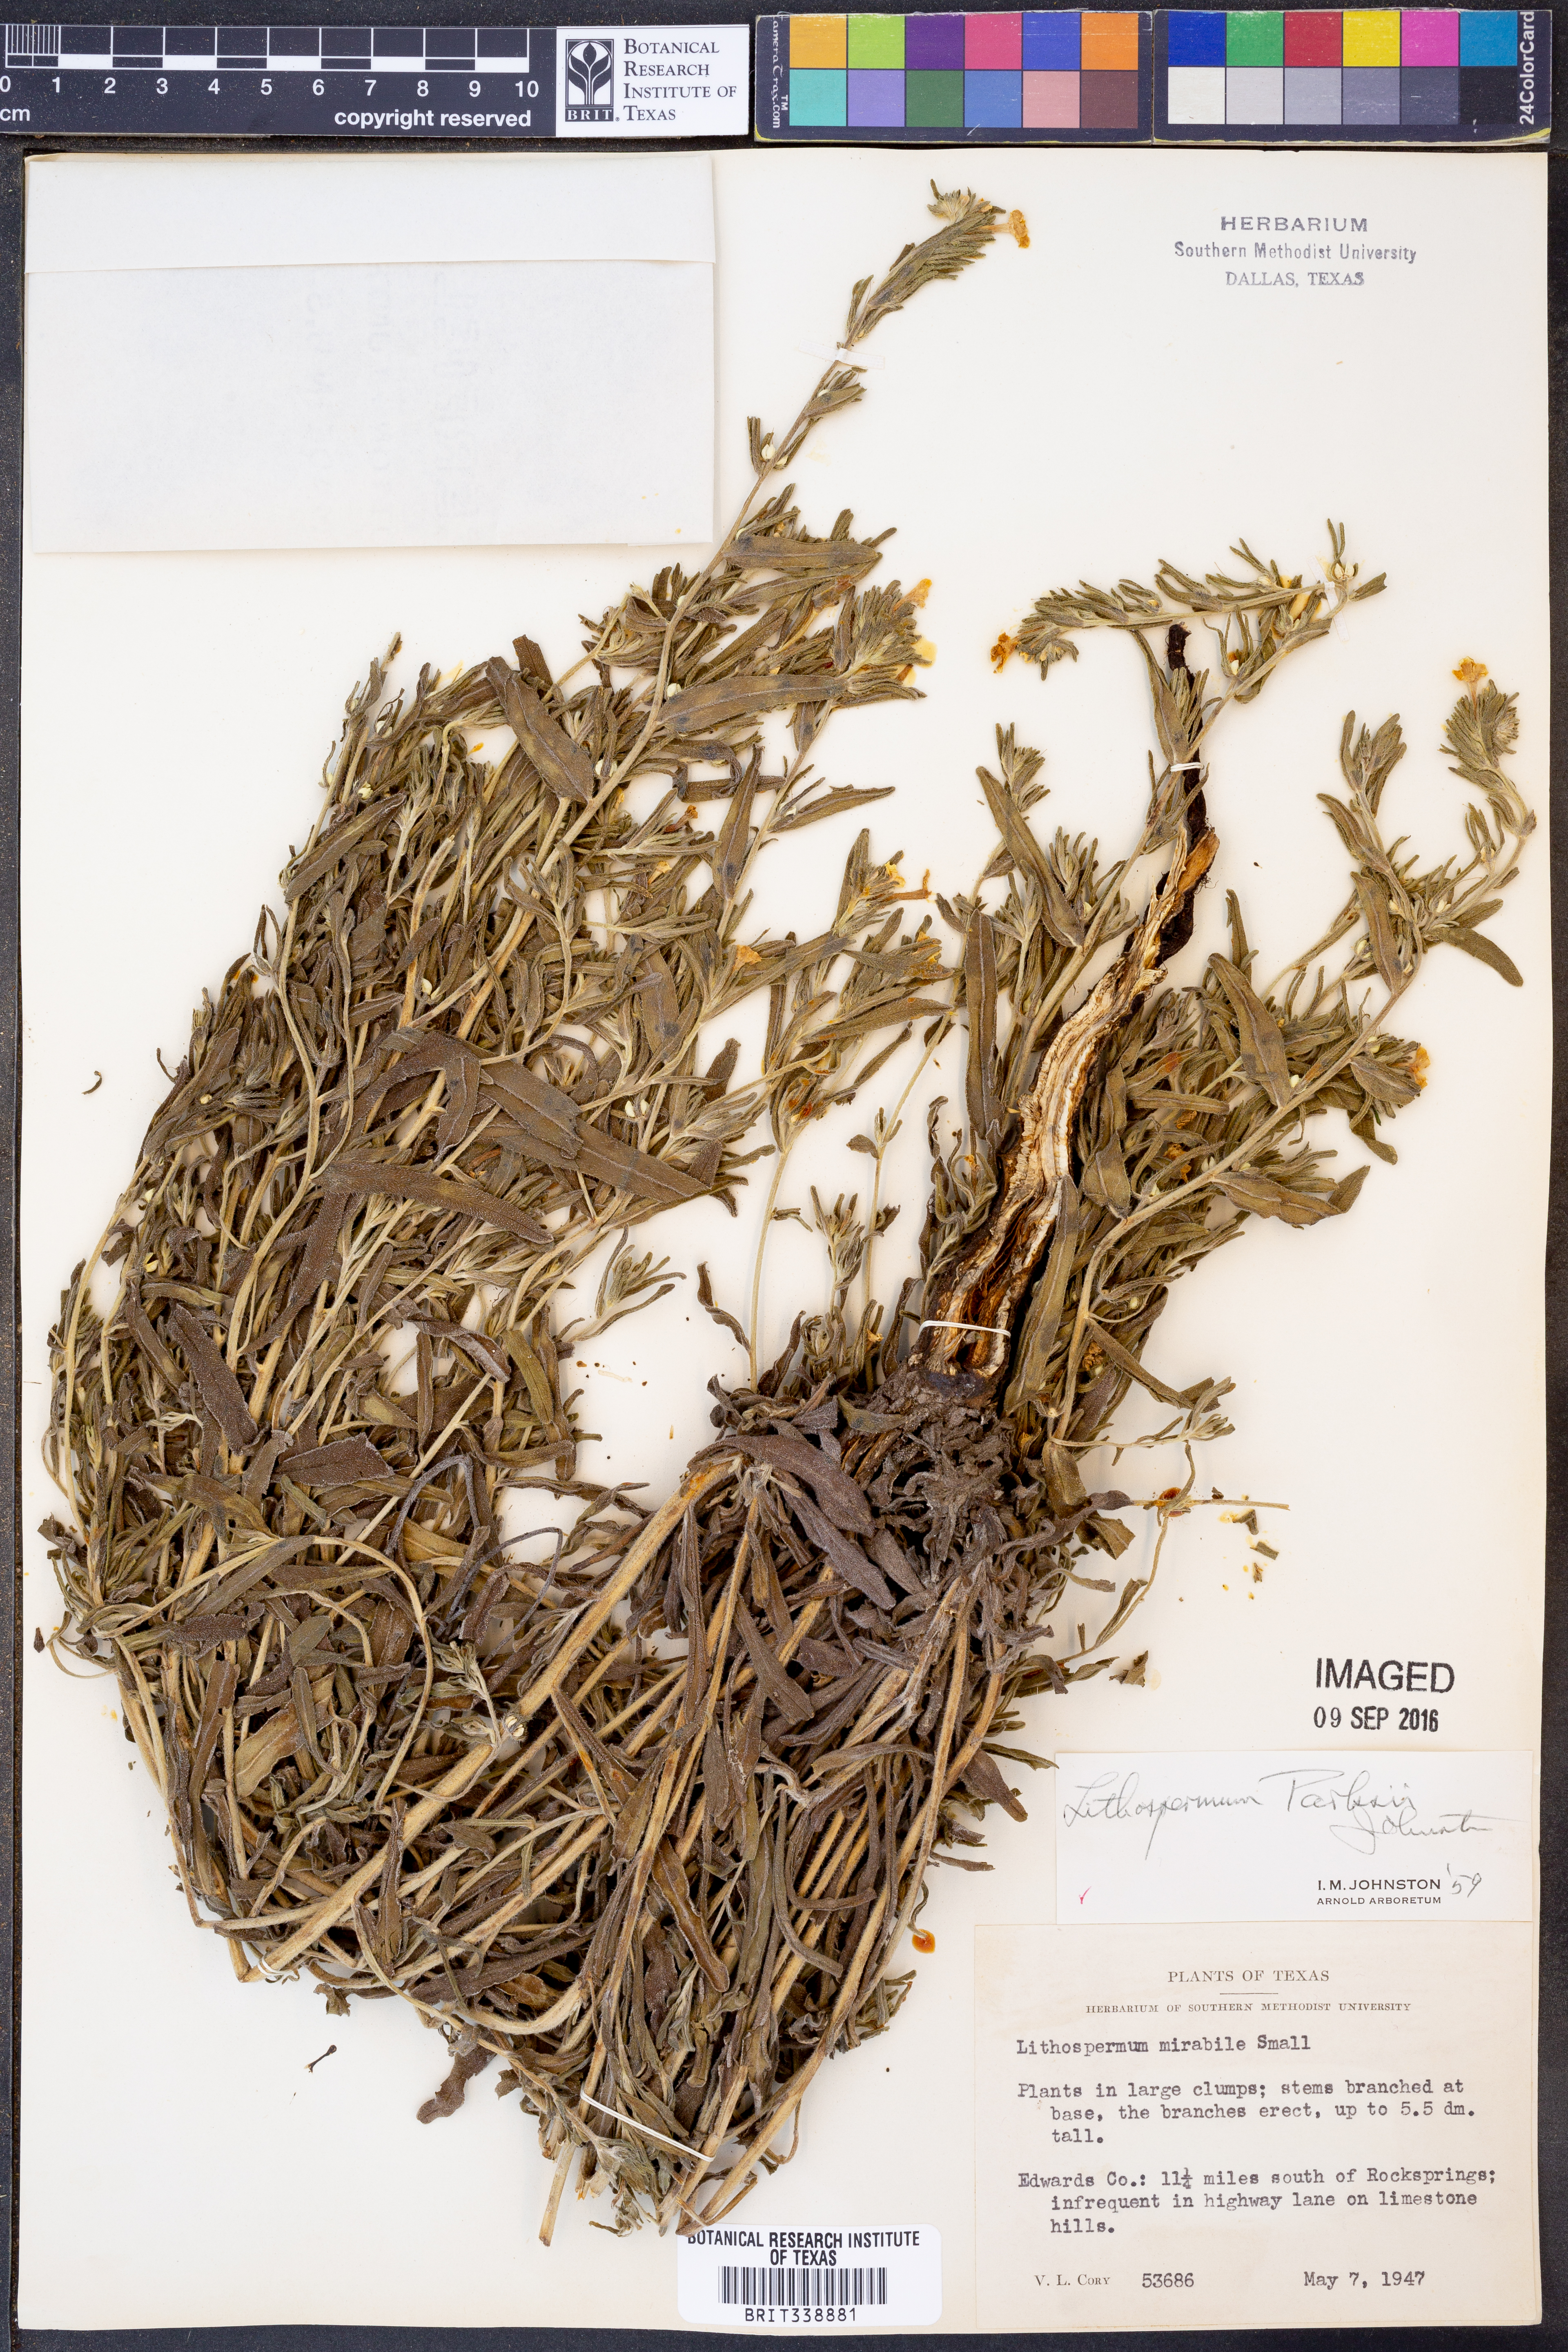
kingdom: Plantae
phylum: Tracheophyta
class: Magnoliopsida
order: Boraginales
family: Boraginaceae
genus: Lithospermum
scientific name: Lithospermum parksii
